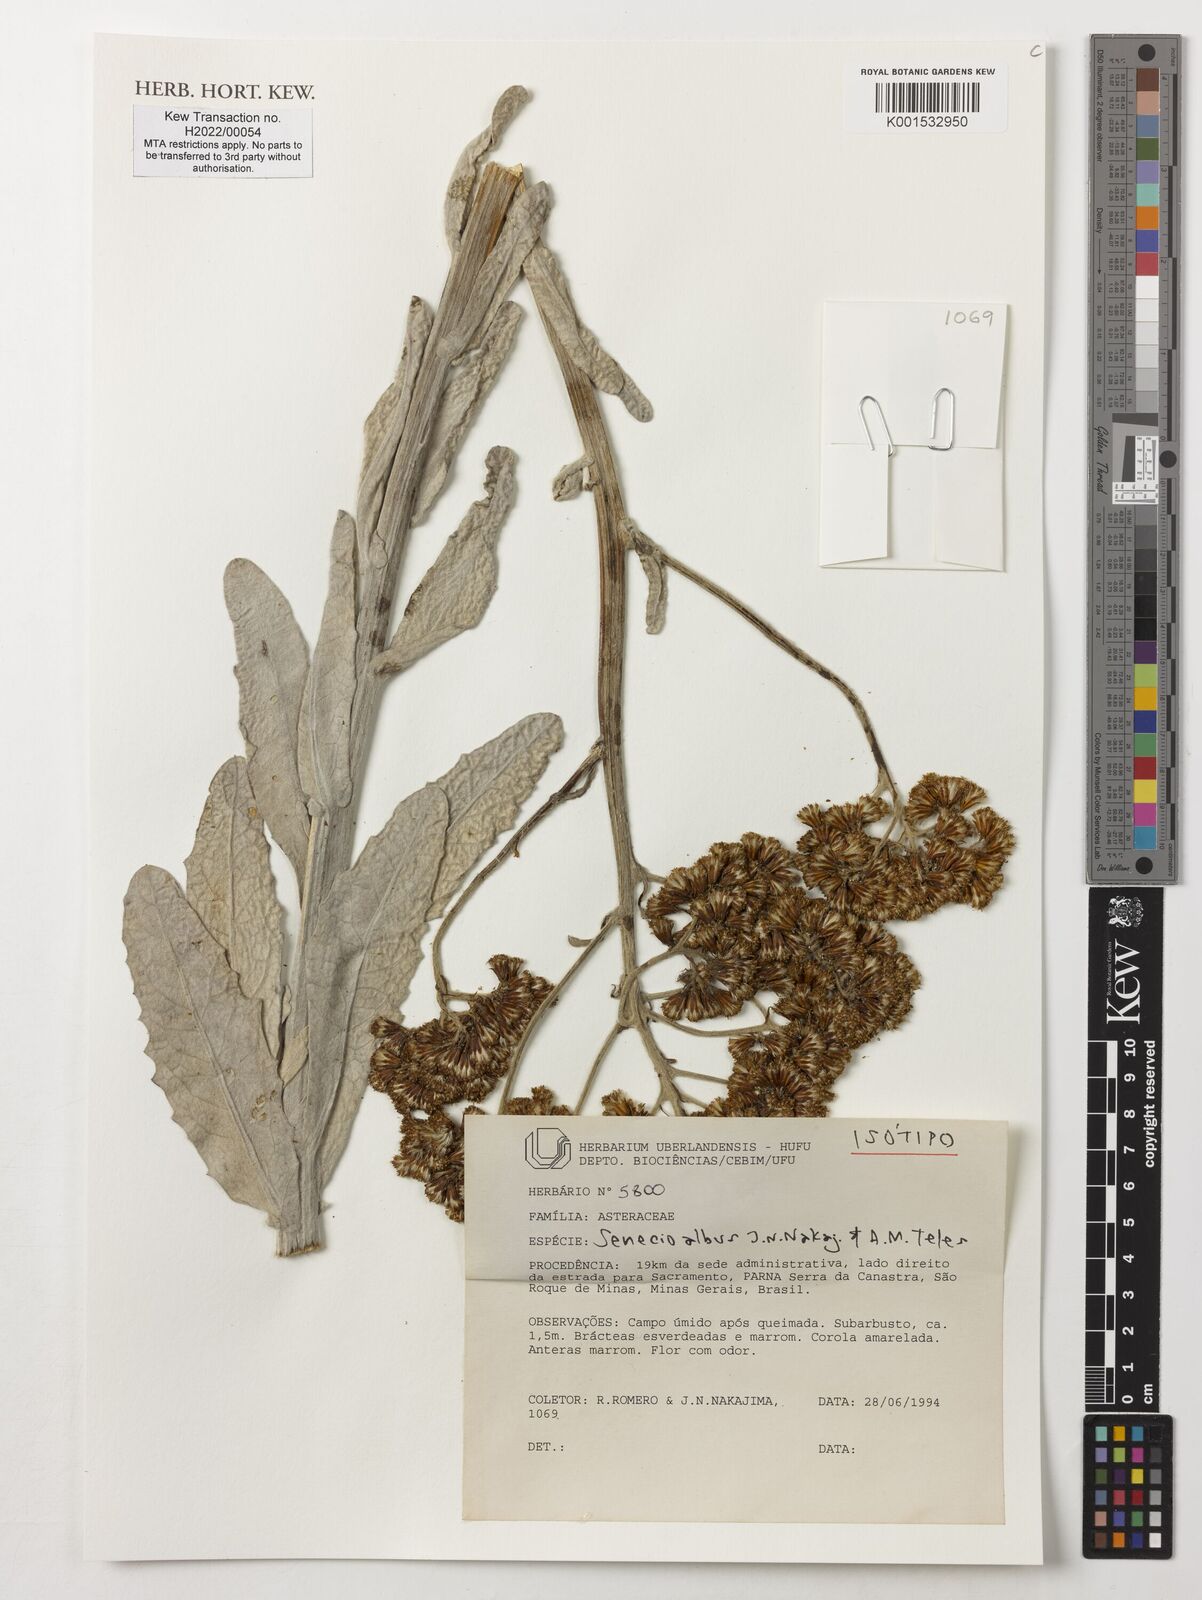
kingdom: Plantae
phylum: Tracheophyta
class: Magnoliopsida
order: Asterales
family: Asteraceae
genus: Senecio
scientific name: Senecio albus
